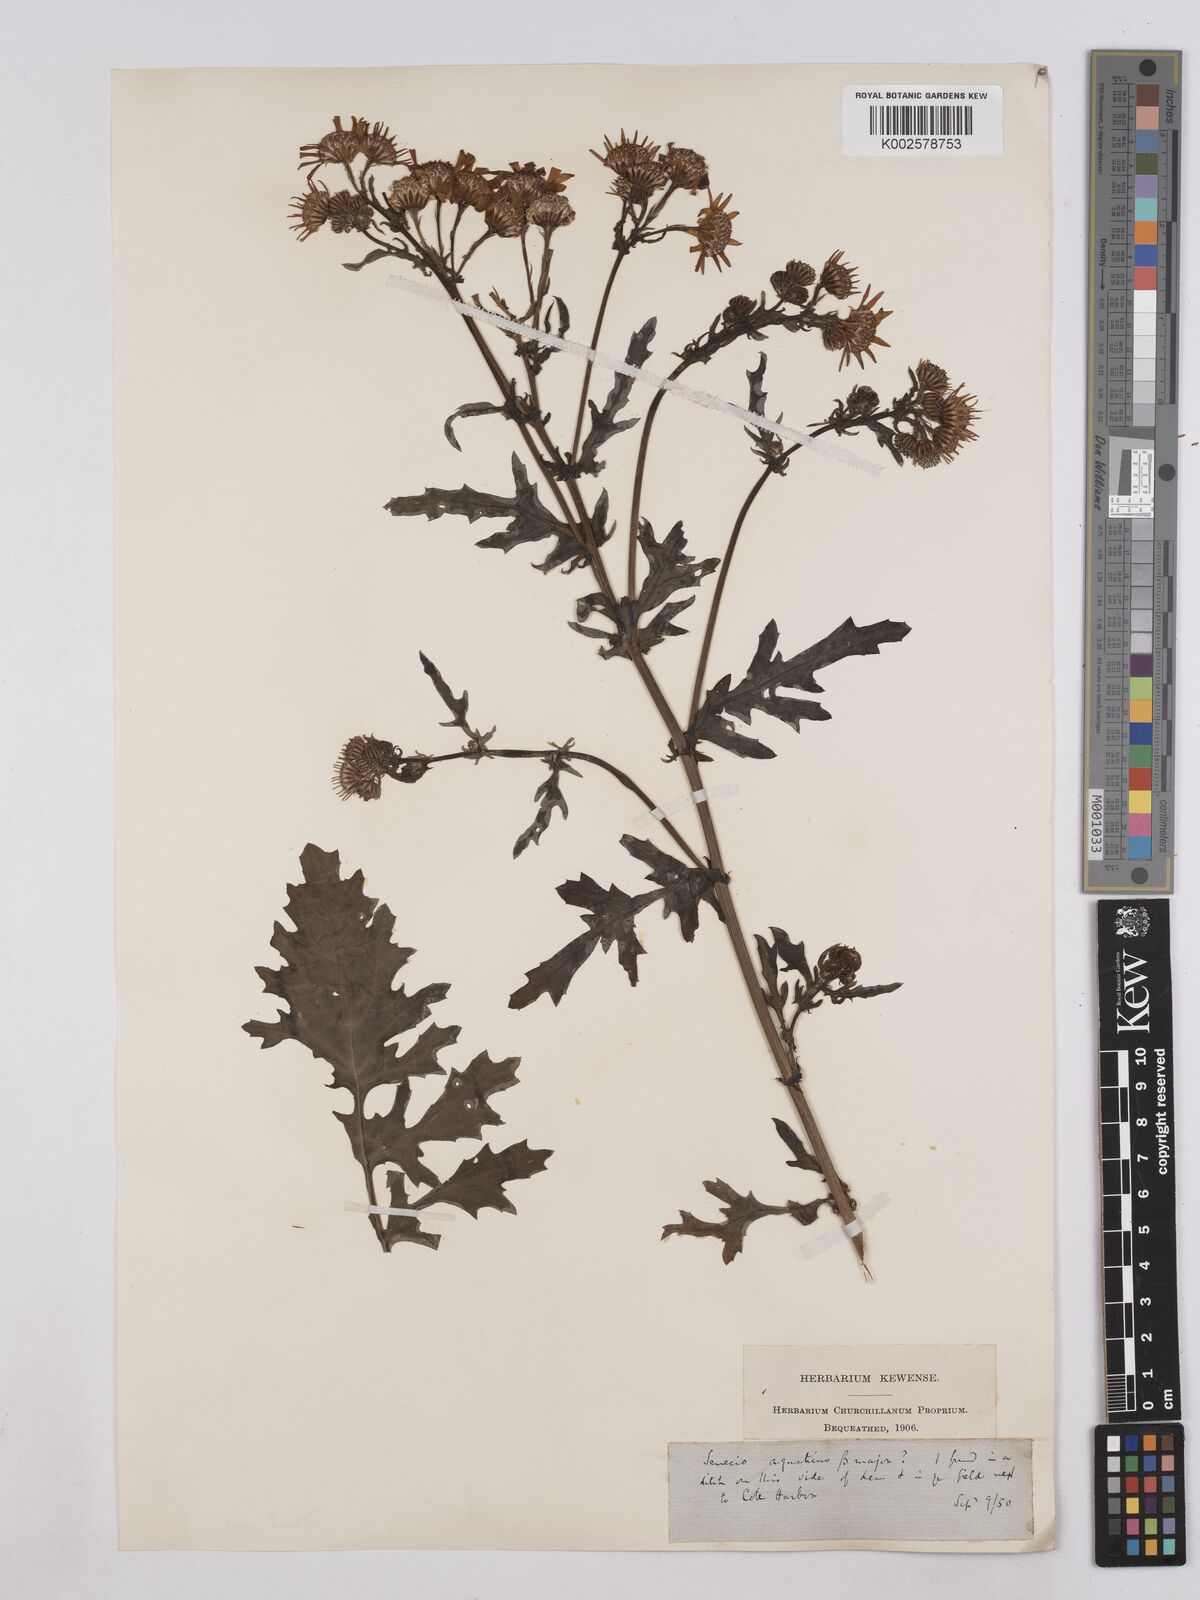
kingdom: Plantae
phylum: Tracheophyta
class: Magnoliopsida
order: Asterales
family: Asteraceae
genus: Jacobaea
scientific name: Jacobaea aquatica
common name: Water ragwort
